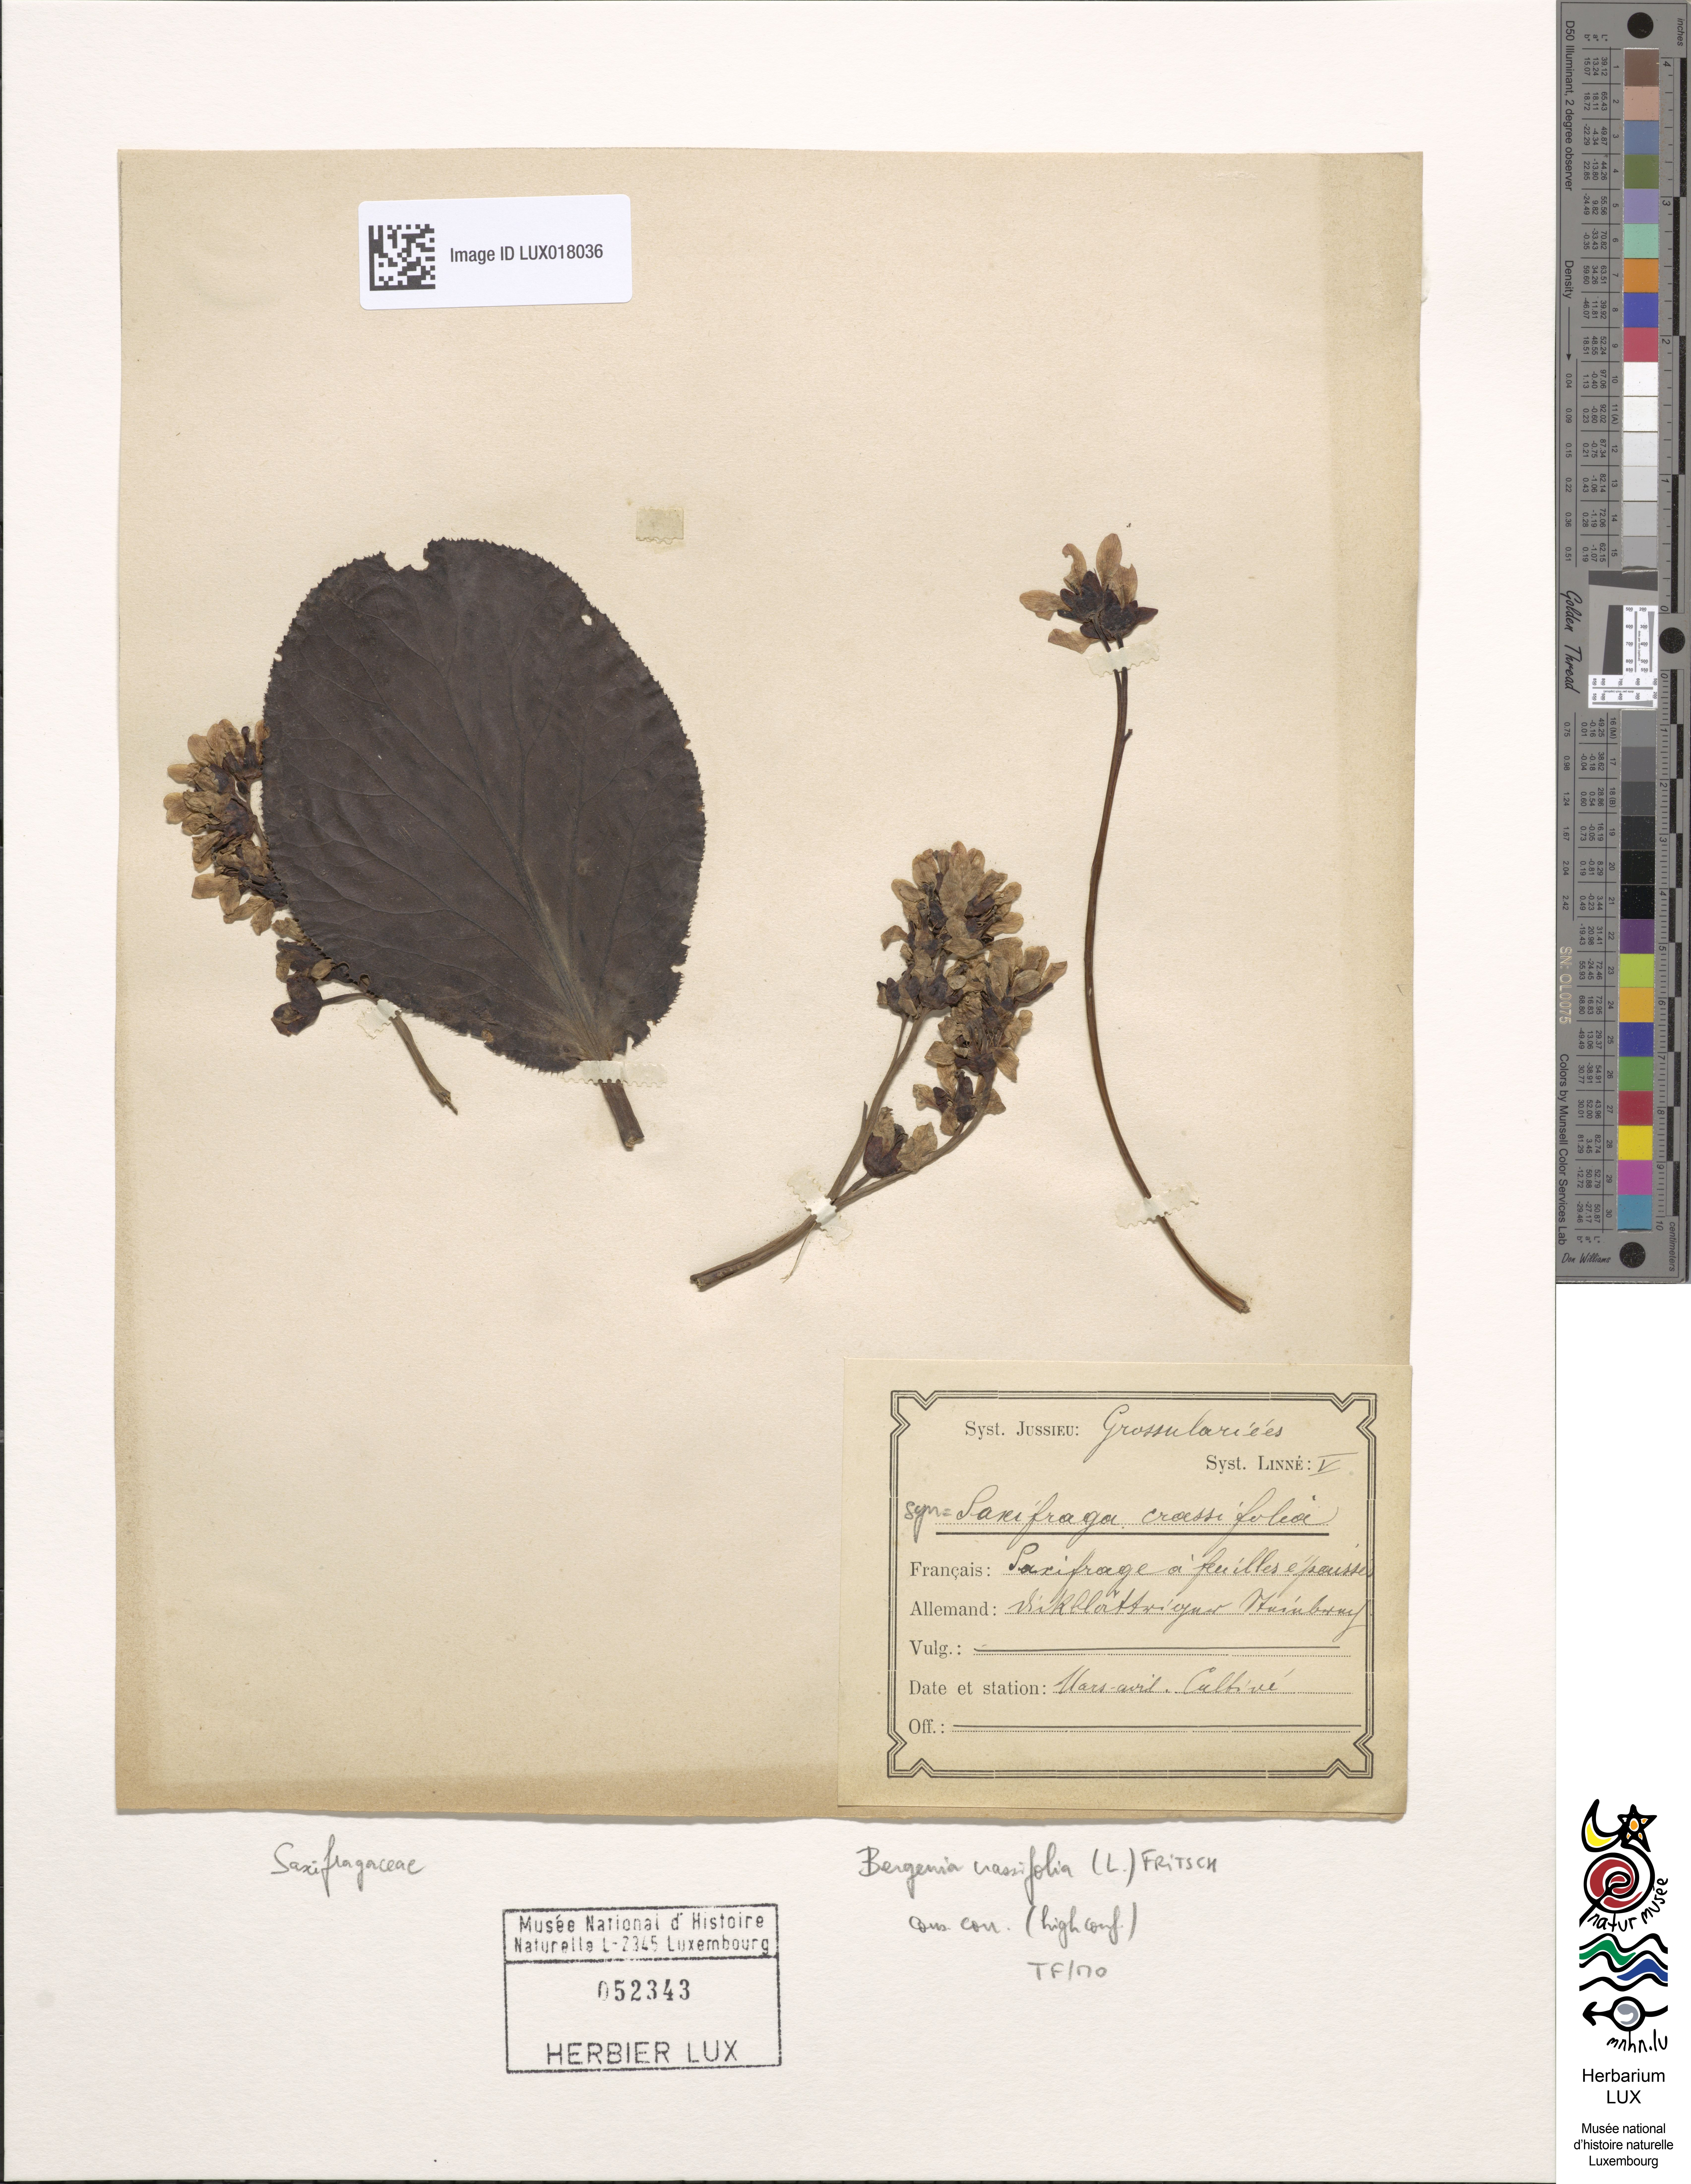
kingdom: Plantae
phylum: Tracheophyta
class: Magnoliopsida
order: Saxifragales
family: Saxifragaceae
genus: Bergenia
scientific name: Bergenia crassifolia
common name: Elephant-ears
